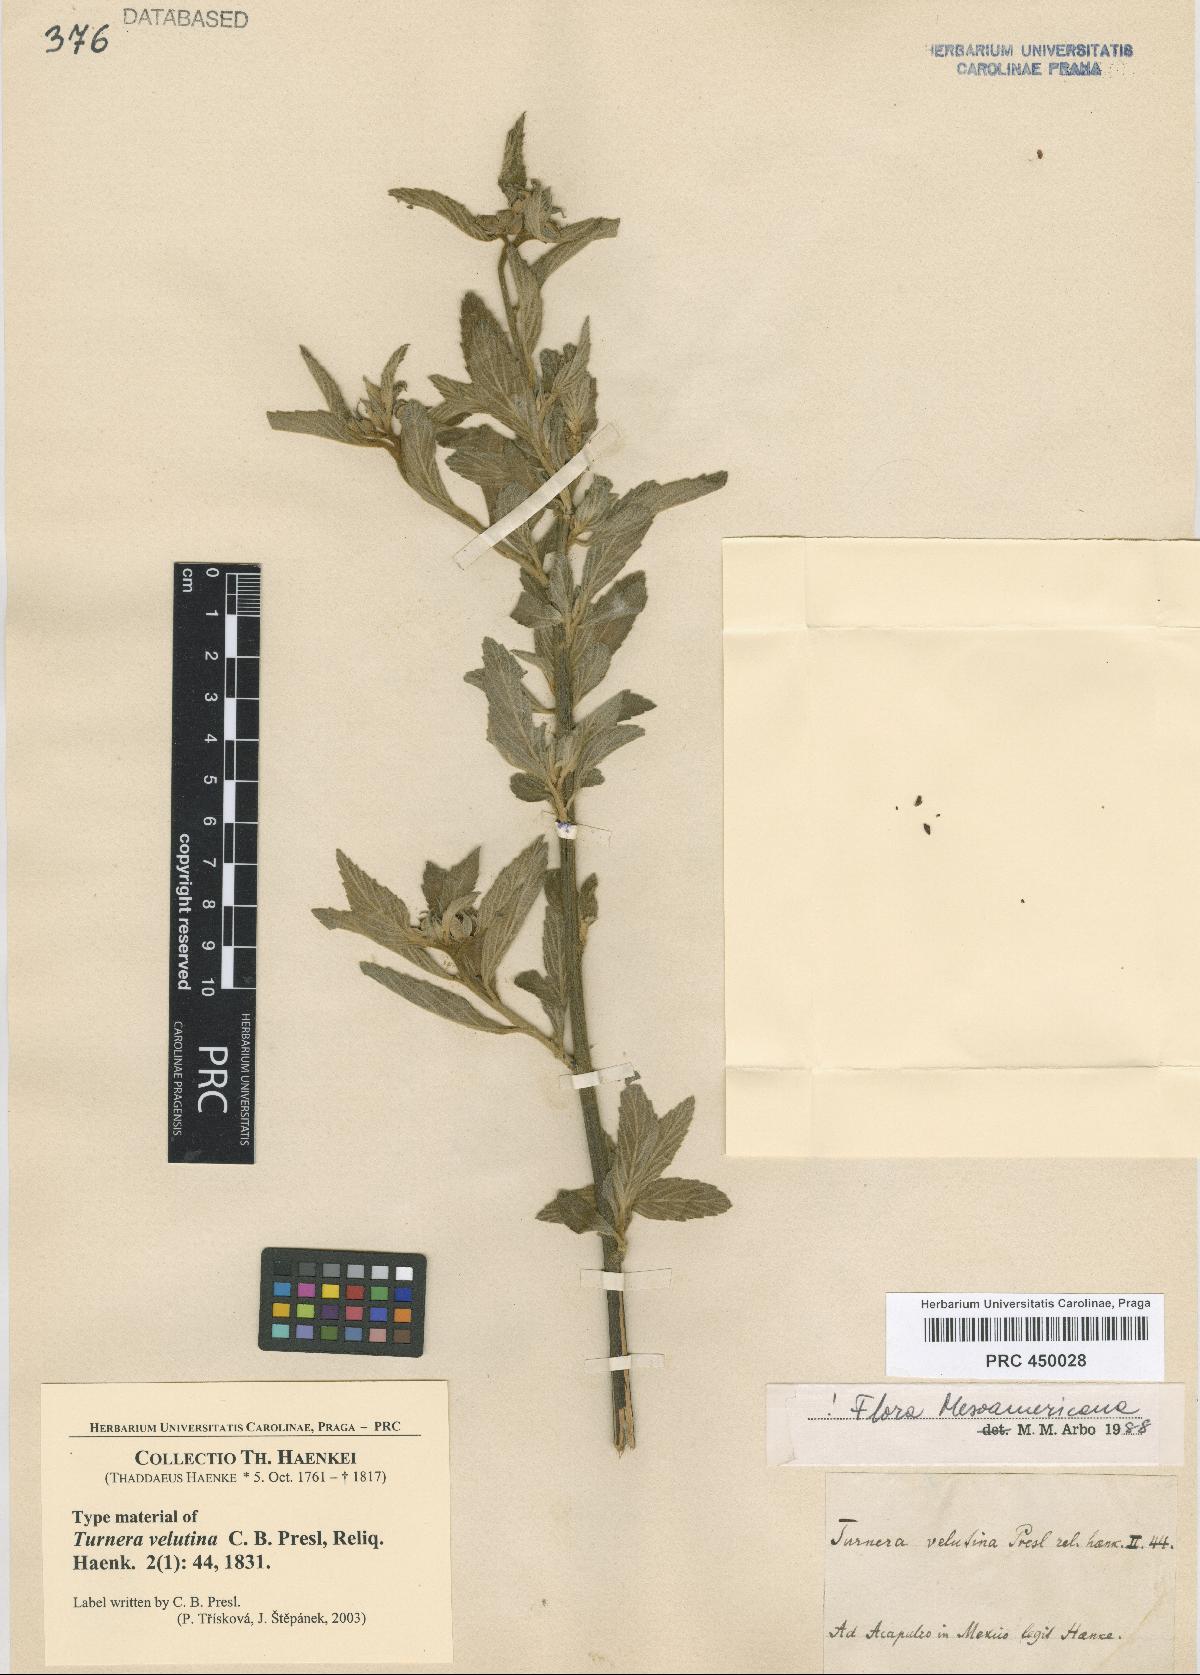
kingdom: Plantae
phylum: Tracheophyta
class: Magnoliopsida
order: Malpighiales
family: Turneraceae
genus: Turnera
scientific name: Turnera velutina
